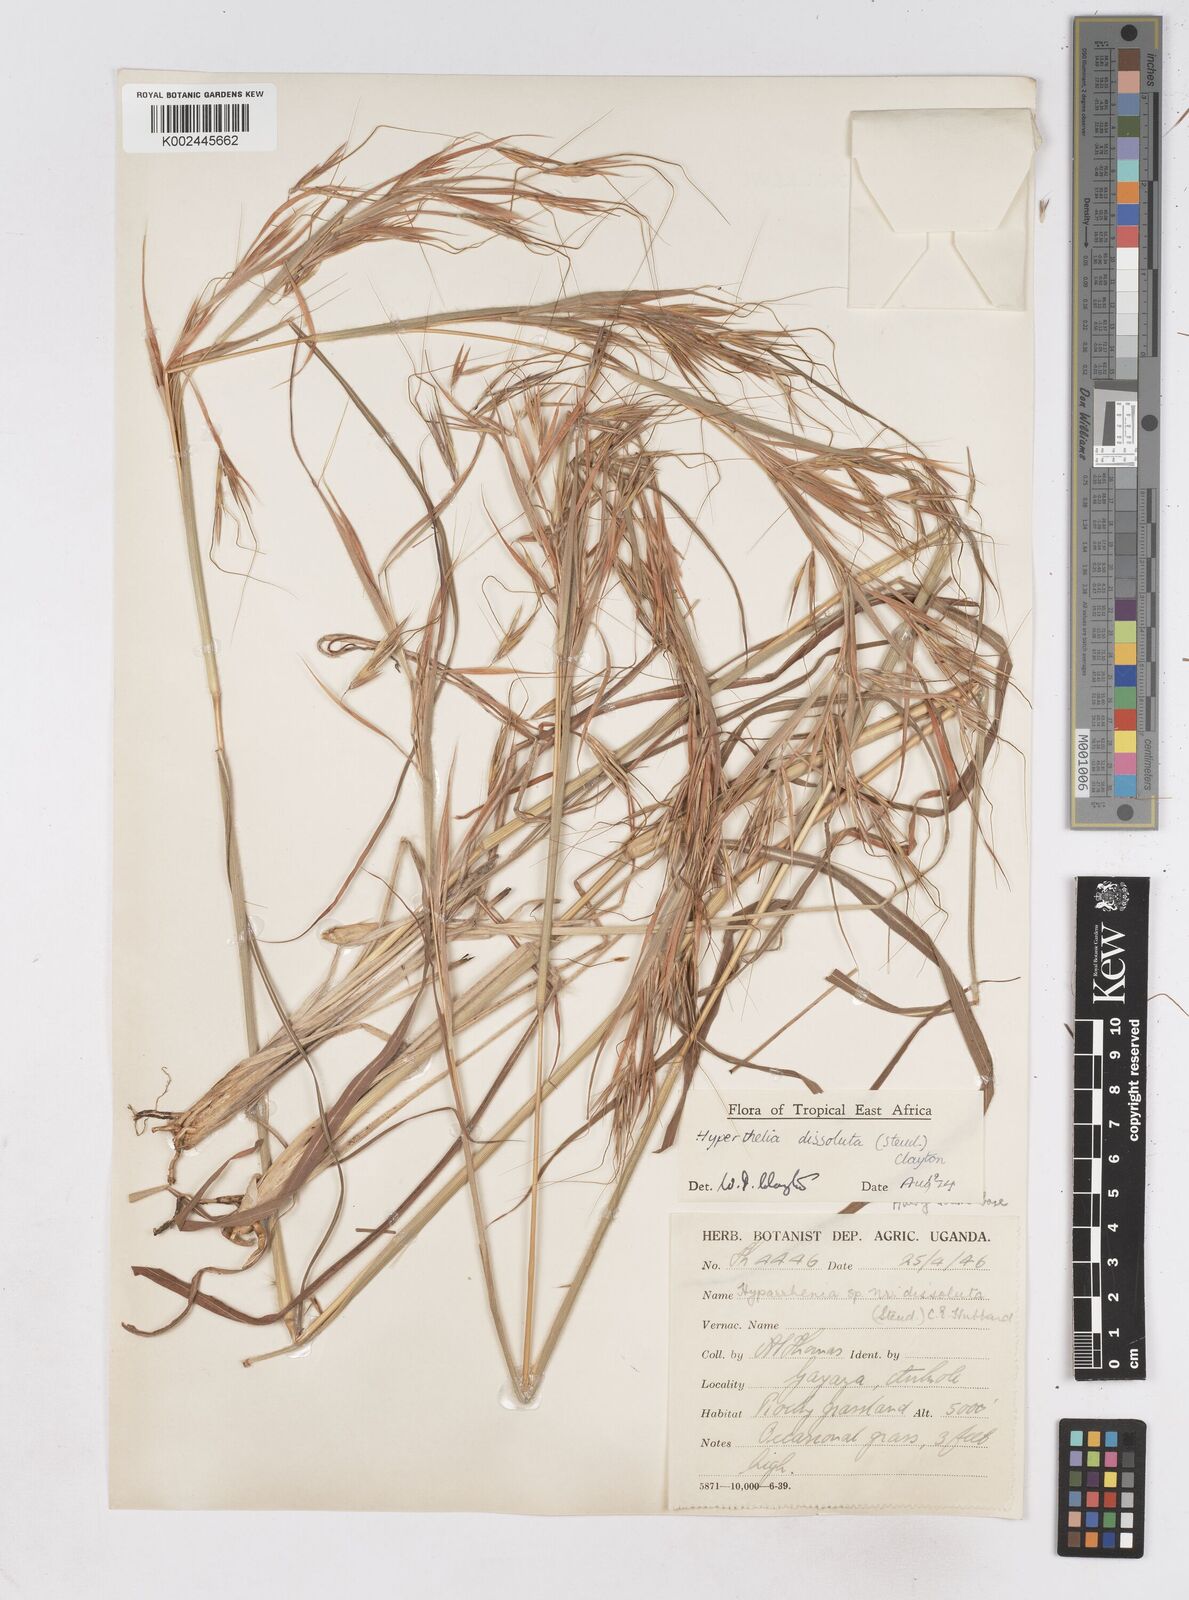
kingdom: Plantae
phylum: Tracheophyta
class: Liliopsida
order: Poales
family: Poaceae
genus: Hyperthelia
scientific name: Hyperthelia dissoluta
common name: Yellow thatching grass
